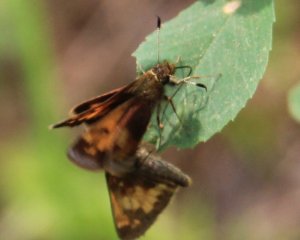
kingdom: Animalia
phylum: Arthropoda
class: Insecta
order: Lepidoptera
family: Hesperiidae
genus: Lon
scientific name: Lon hobomok
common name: Hobomok Skipper
